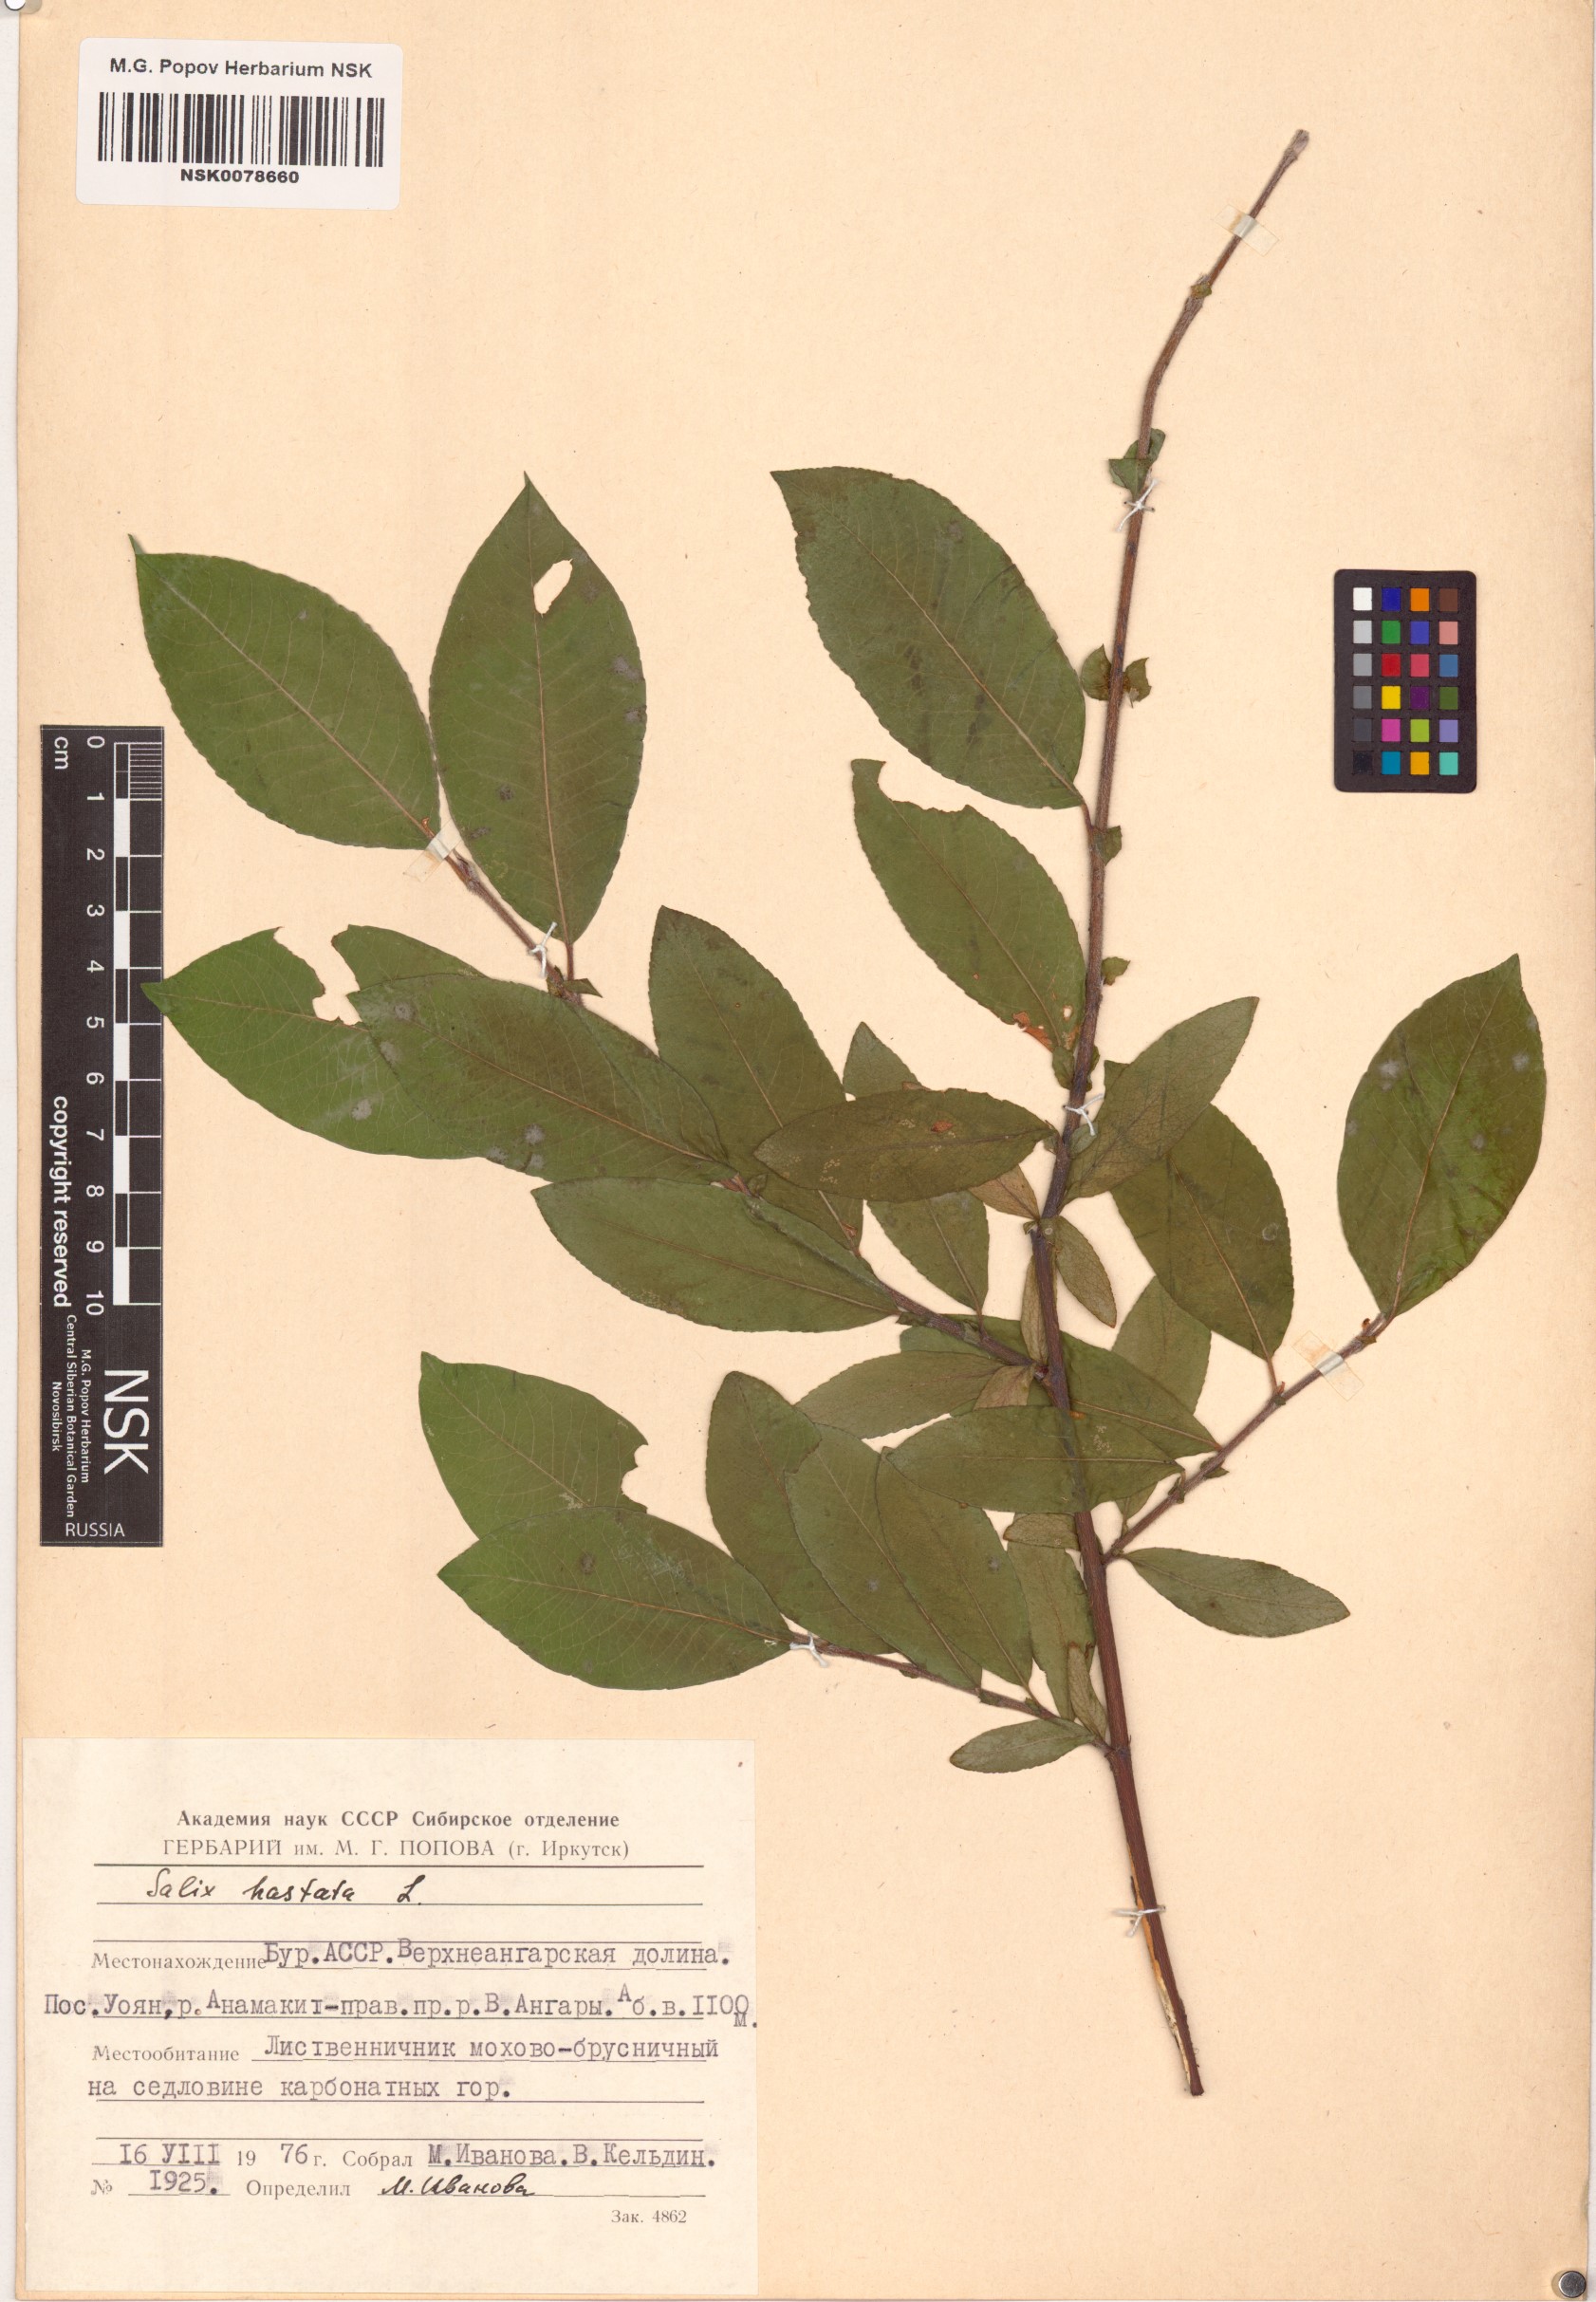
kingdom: Plantae
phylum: Tracheophyta
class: Magnoliopsida
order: Malpighiales
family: Salicaceae
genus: Salix
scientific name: Salix hastata
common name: Halberd willow
